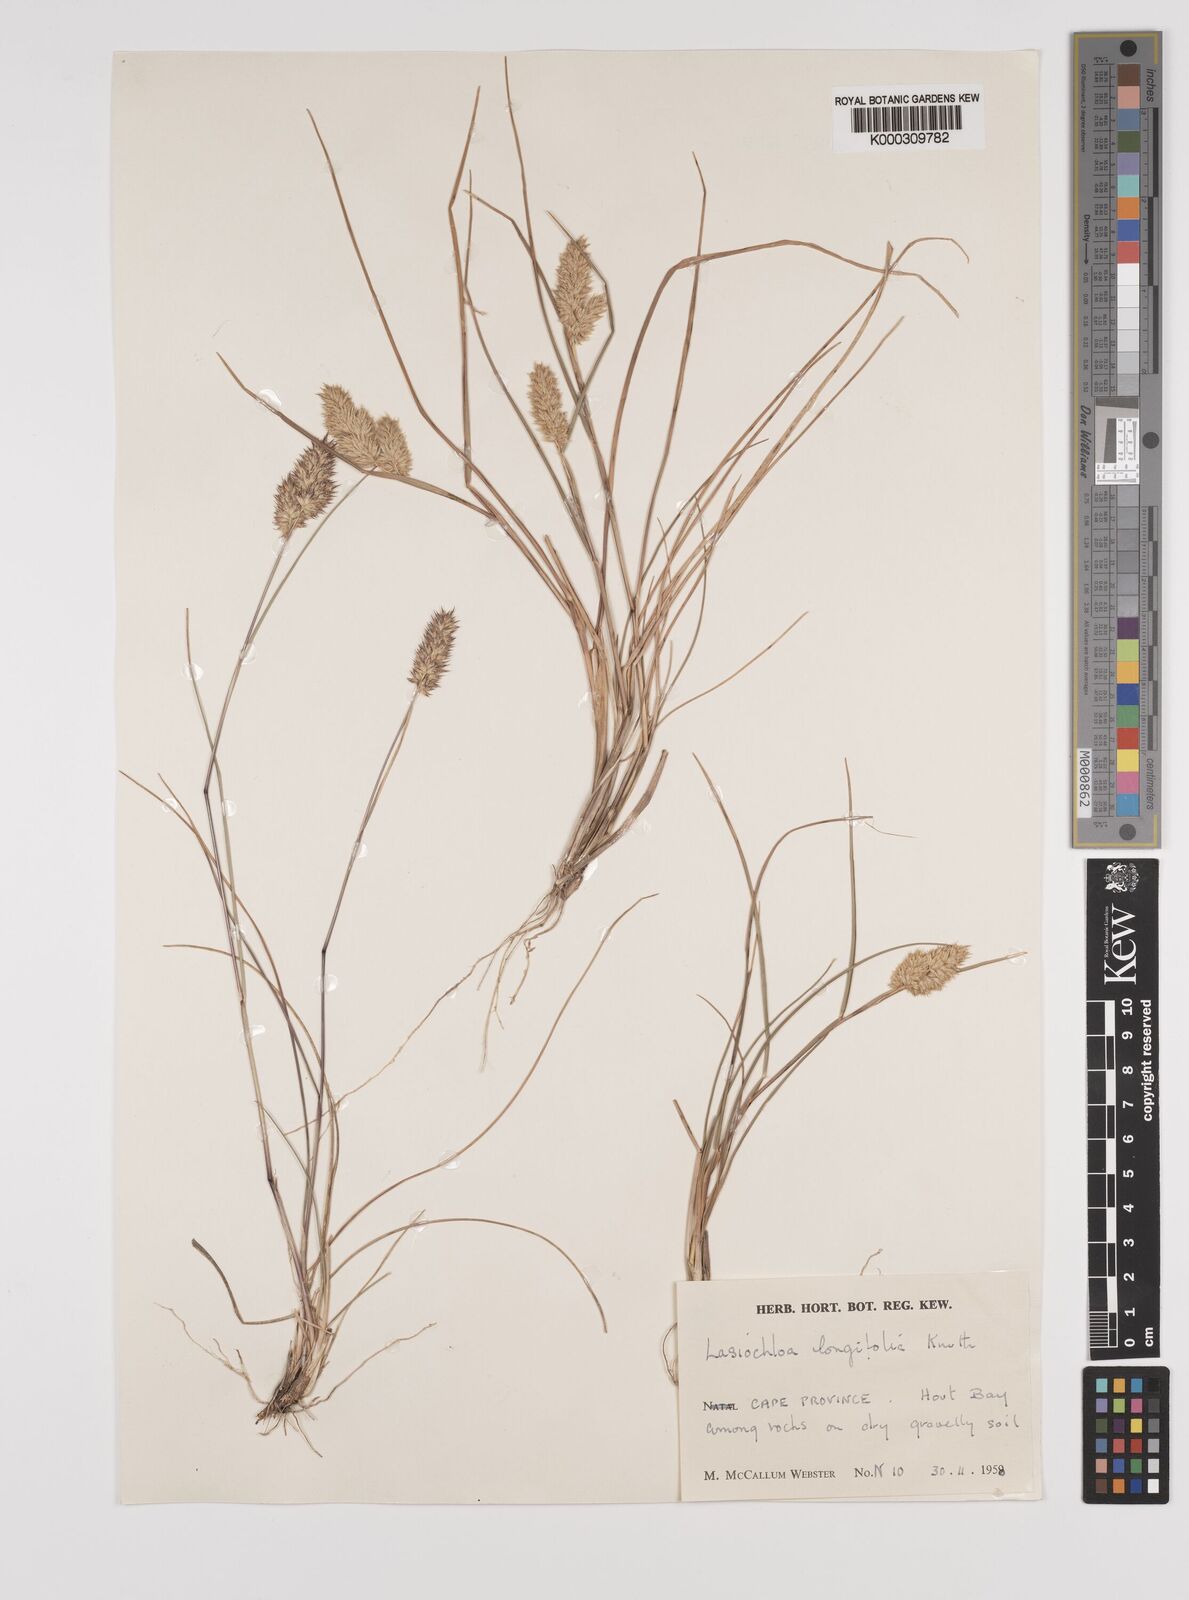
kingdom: Plantae
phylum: Tracheophyta
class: Liliopsida
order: Poales
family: Poaceae
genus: Tribolium
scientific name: Tribolium hispidum
